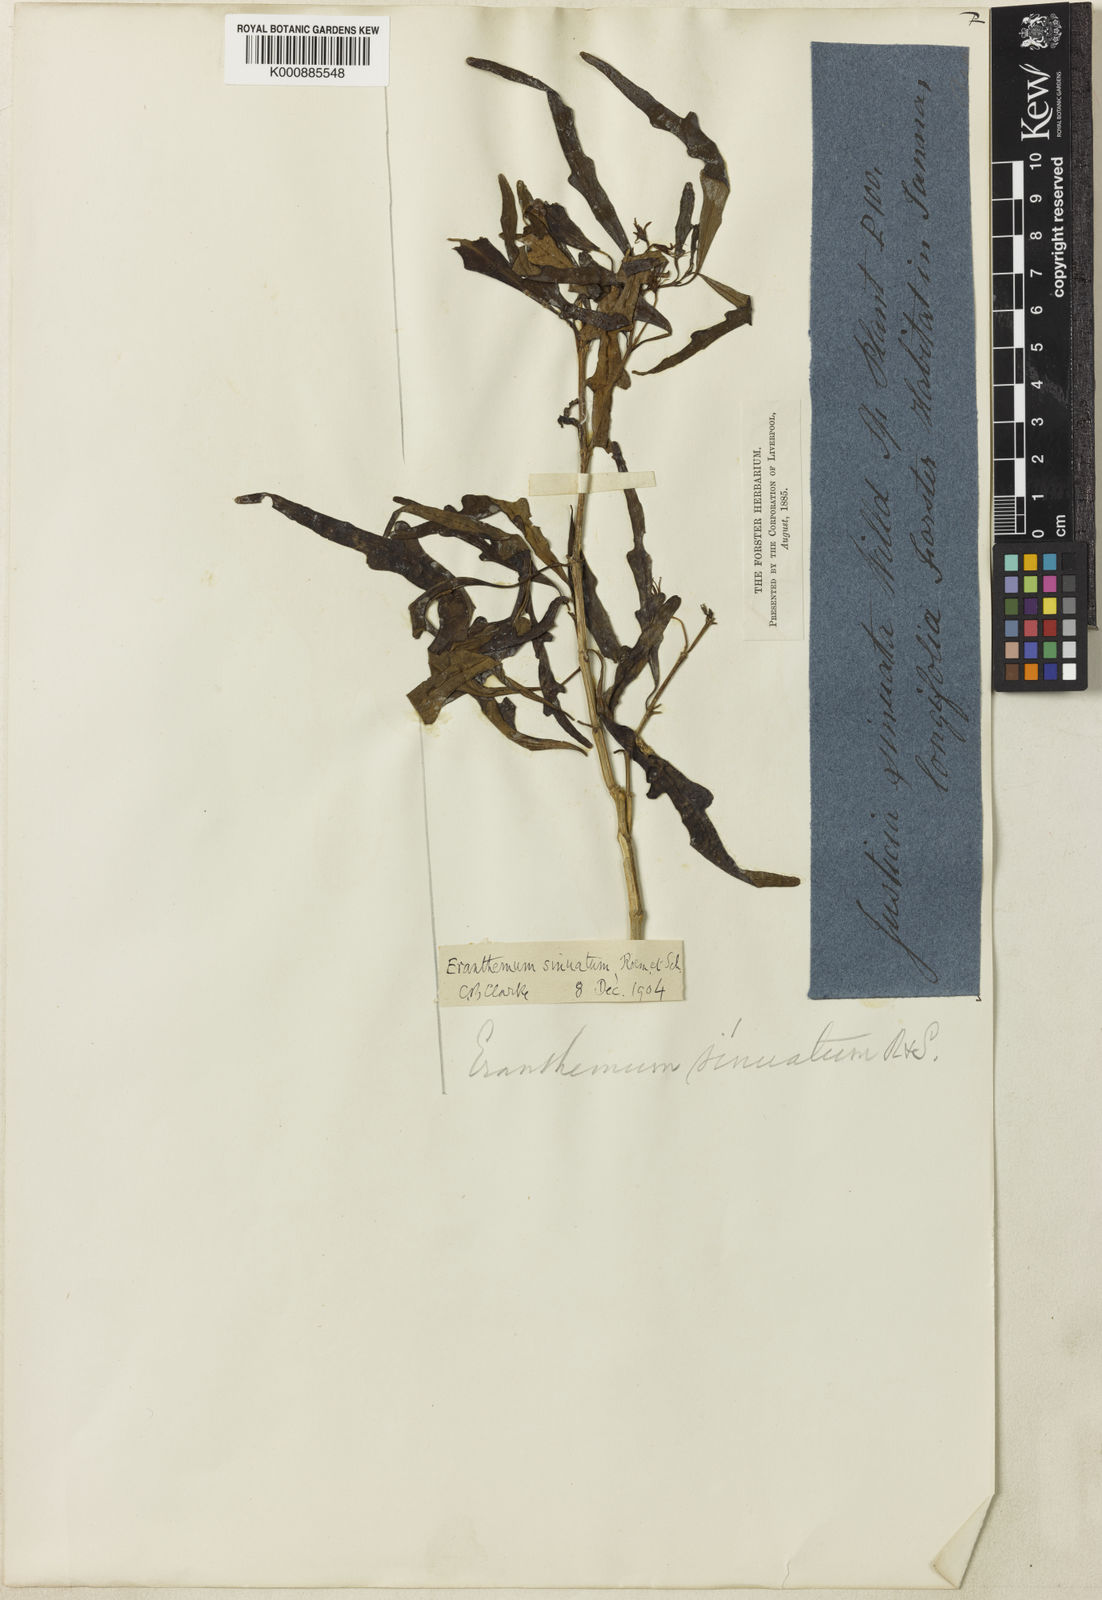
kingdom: Plantae
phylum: Tracheophyta
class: Magnoliopsida
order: Lamiales
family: Acanthaceae
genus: Pseuderanthemum
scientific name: Pseuderanthemum longifolium
